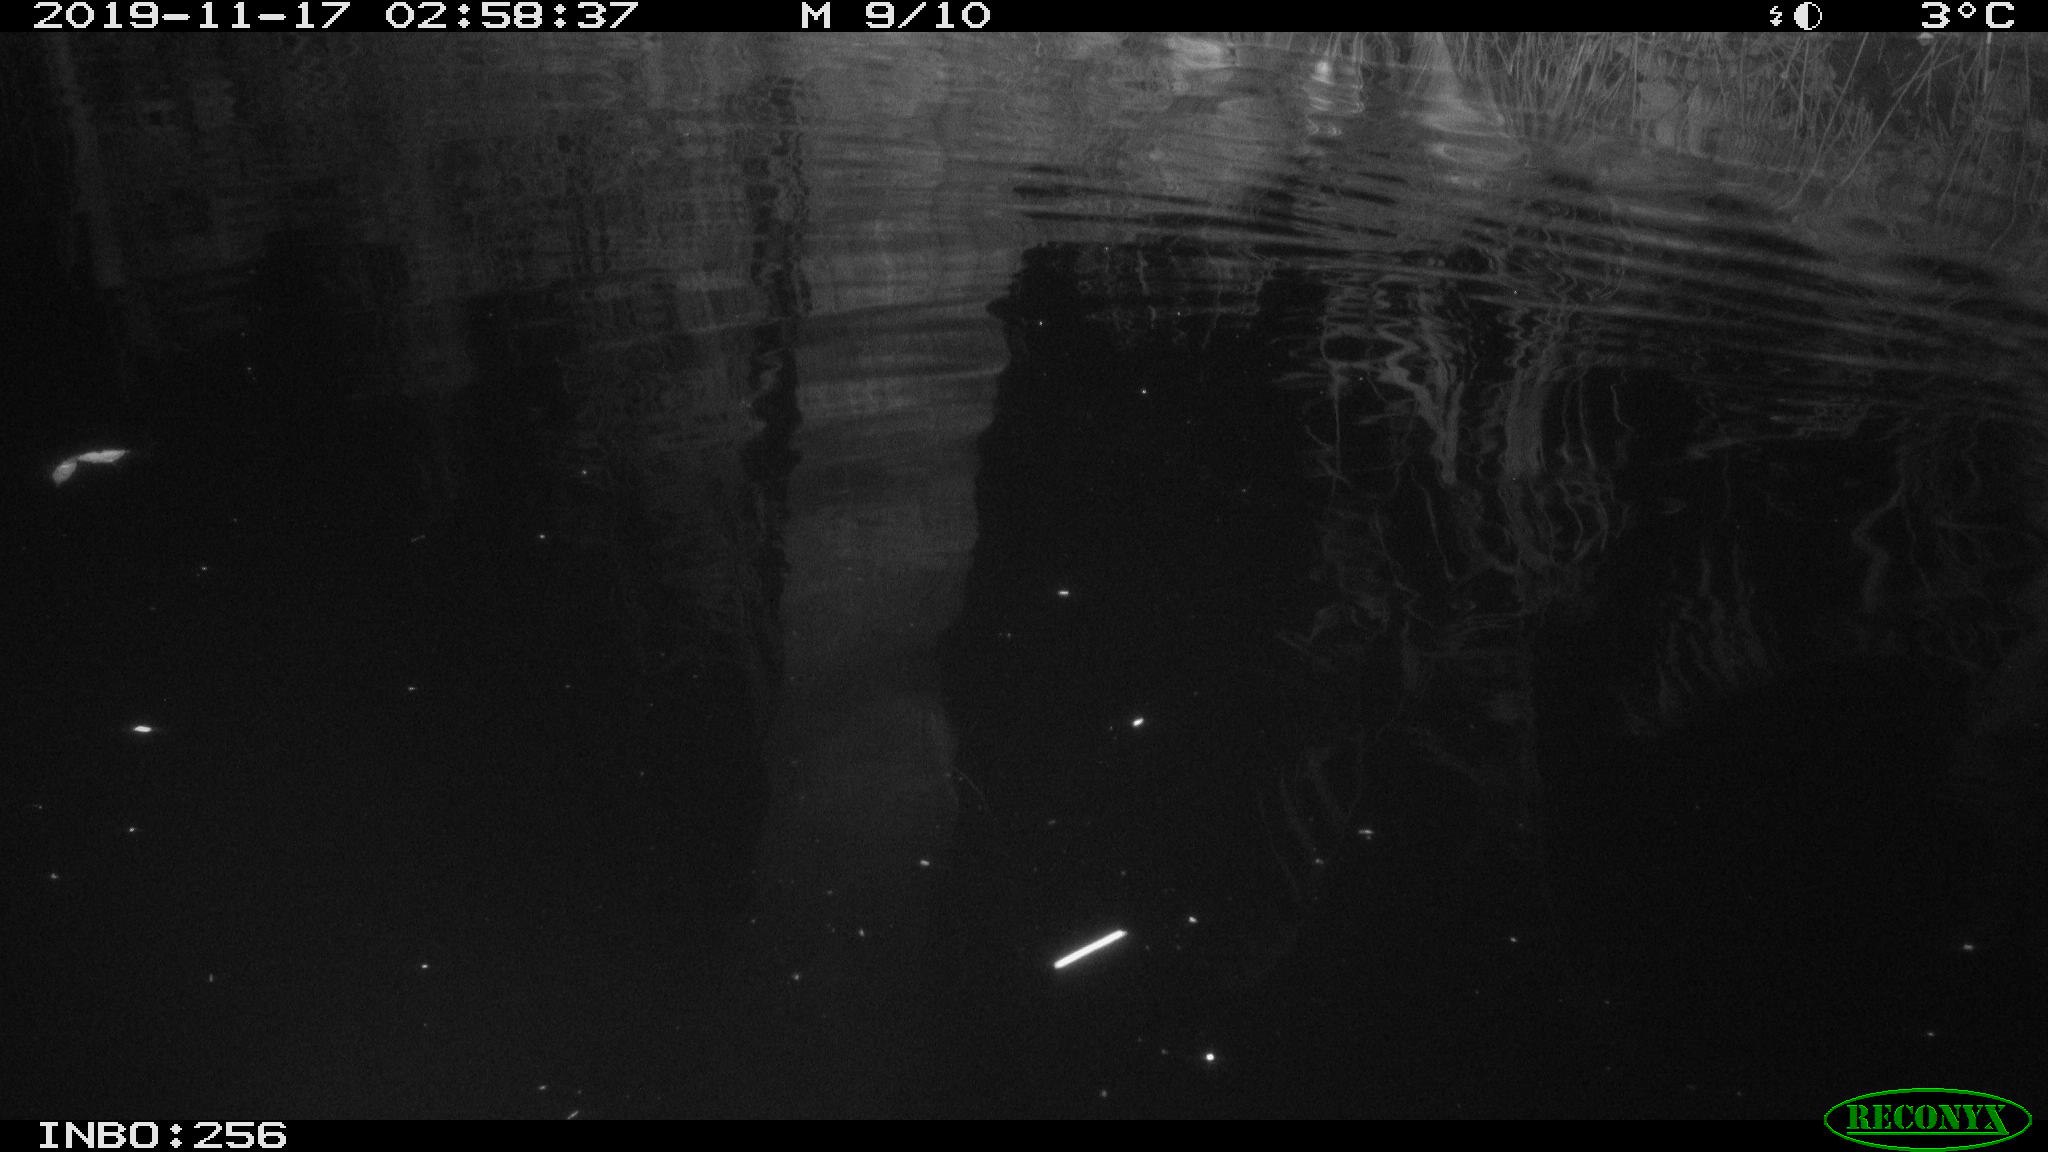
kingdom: Animalia
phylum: Chordata
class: Mammalia
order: Rodentia
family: Cricetidae
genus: Ondatra
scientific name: Ondatra zibethicus
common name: Muskrat
